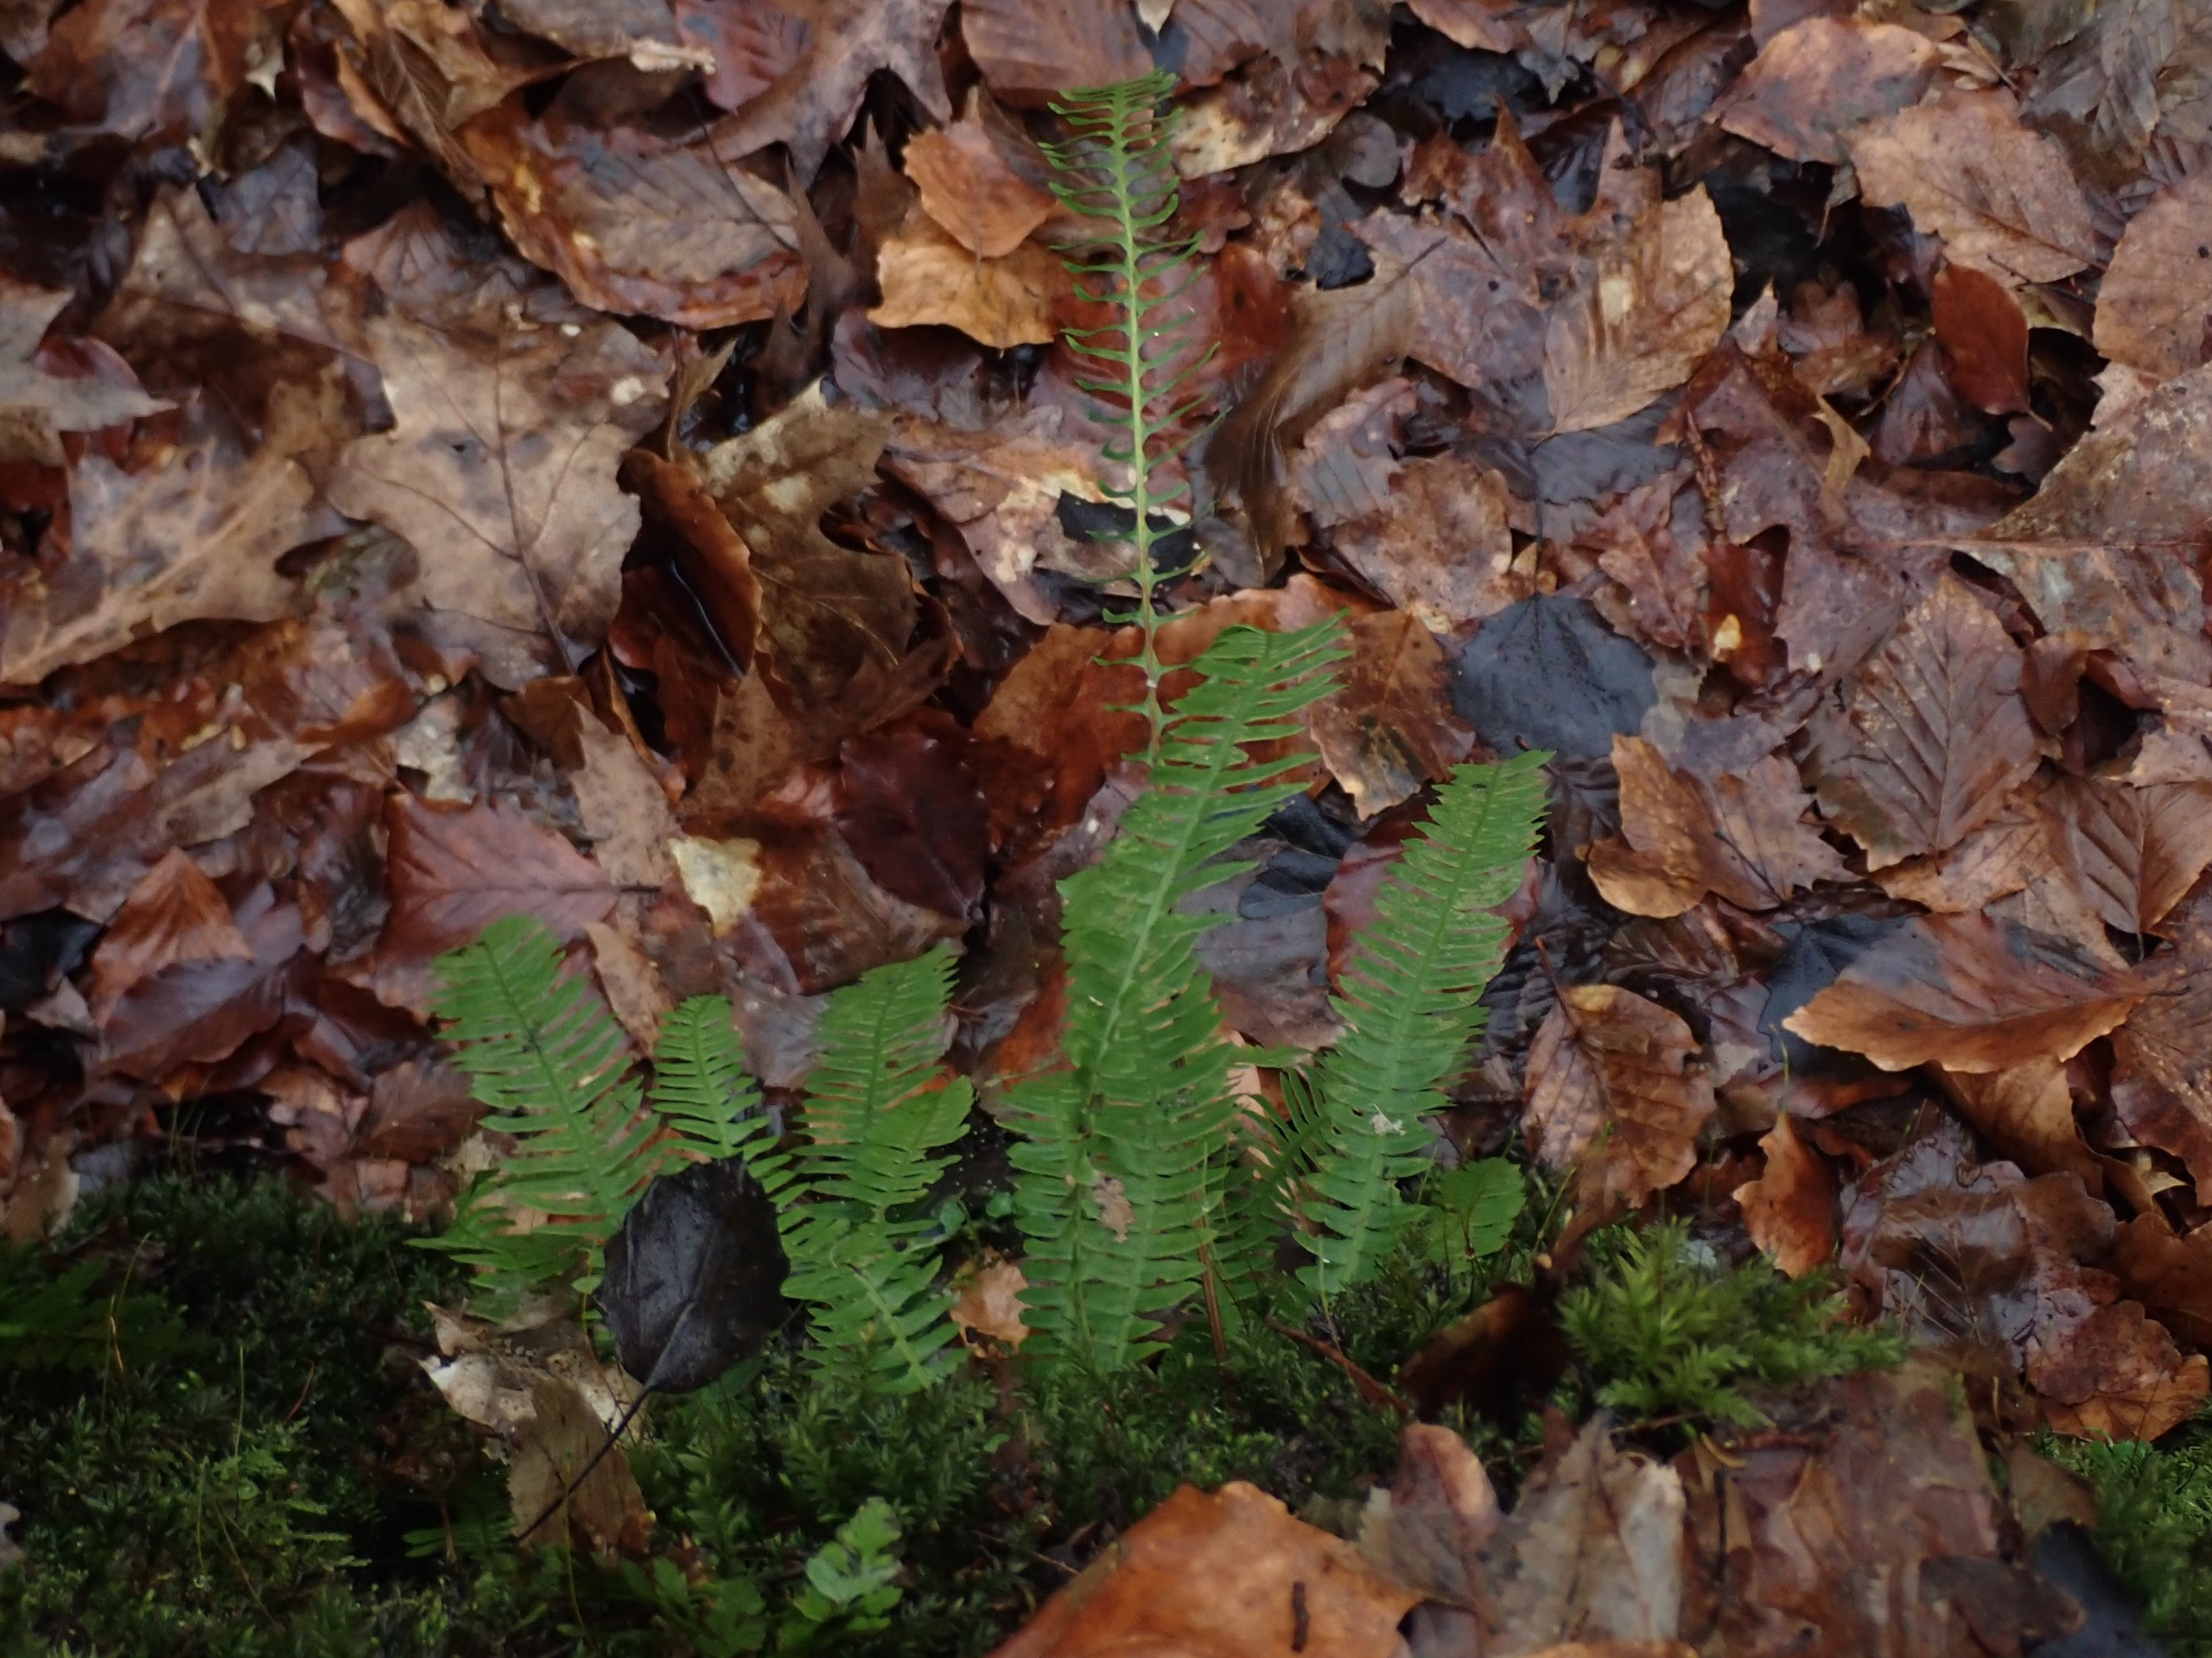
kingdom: Plantae
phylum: Tracheophyta
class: Polypodiopsida
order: Polypodiales
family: Blechnaceae
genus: Struthiopteris
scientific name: Struthiopteris spicant
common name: Kambregne
